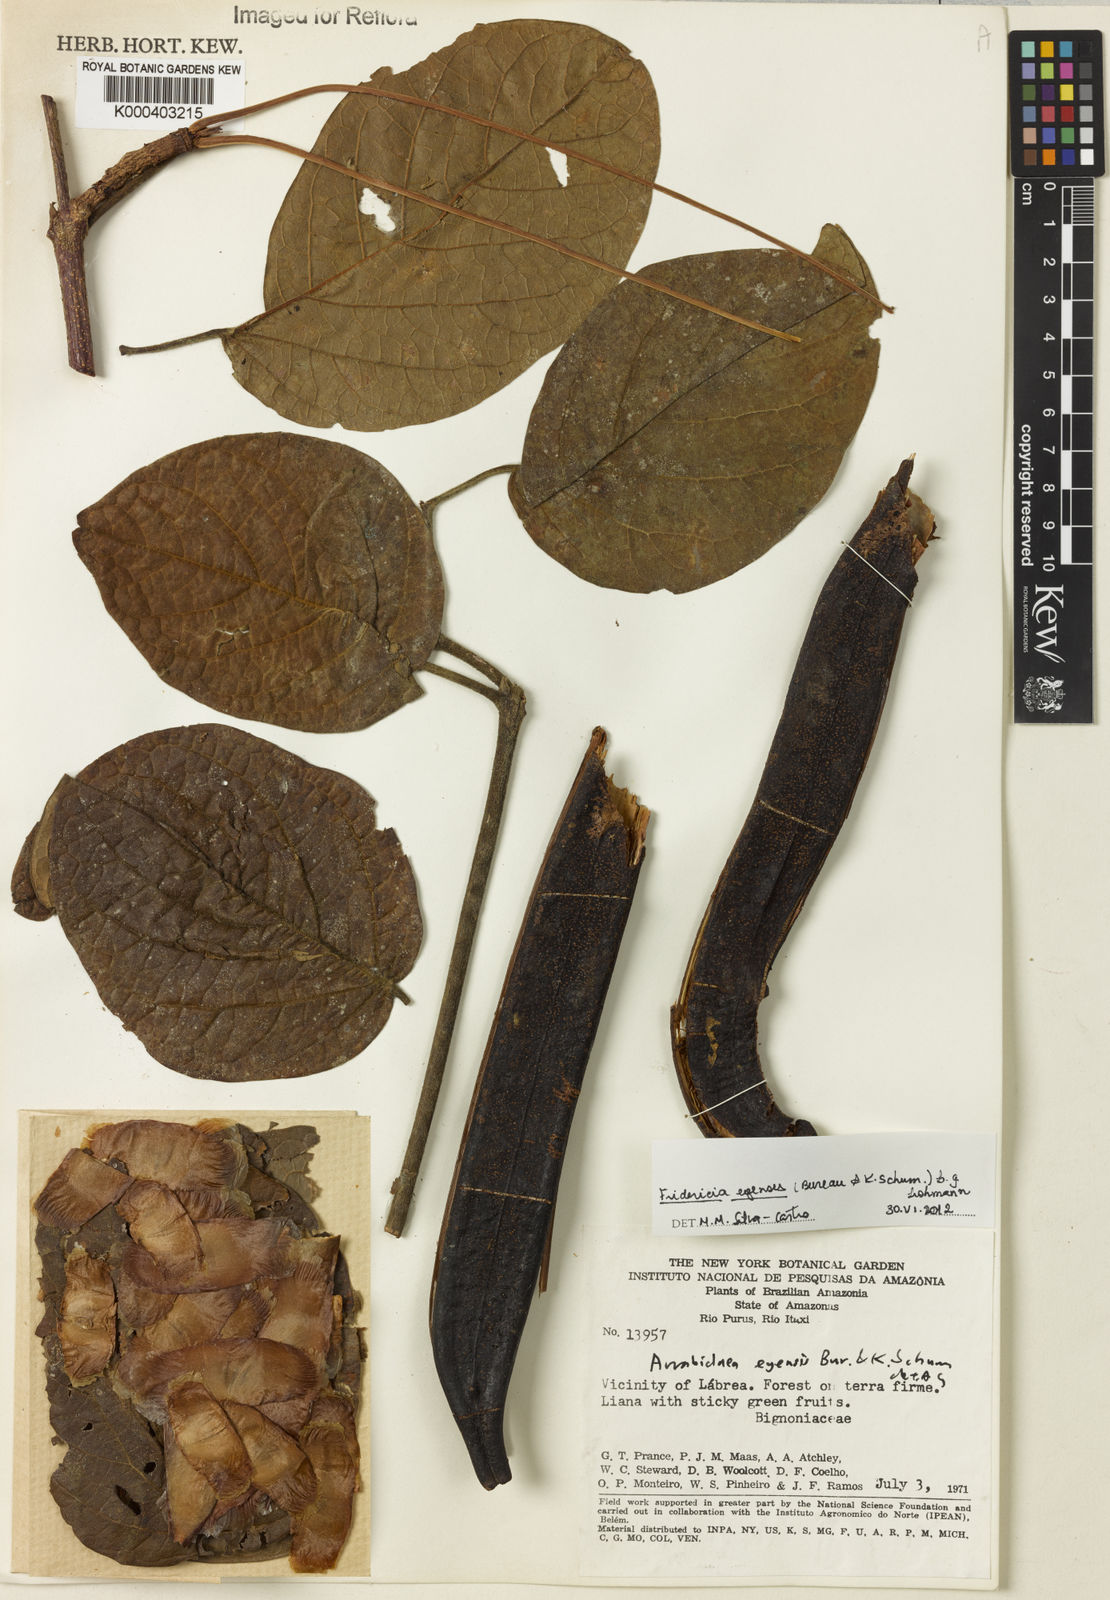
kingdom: Plantae
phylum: Tracheophyta
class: Magnoliopsida
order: Lamiales
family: Bignoniaceae
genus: Fridericia
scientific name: Fridericia egensis
